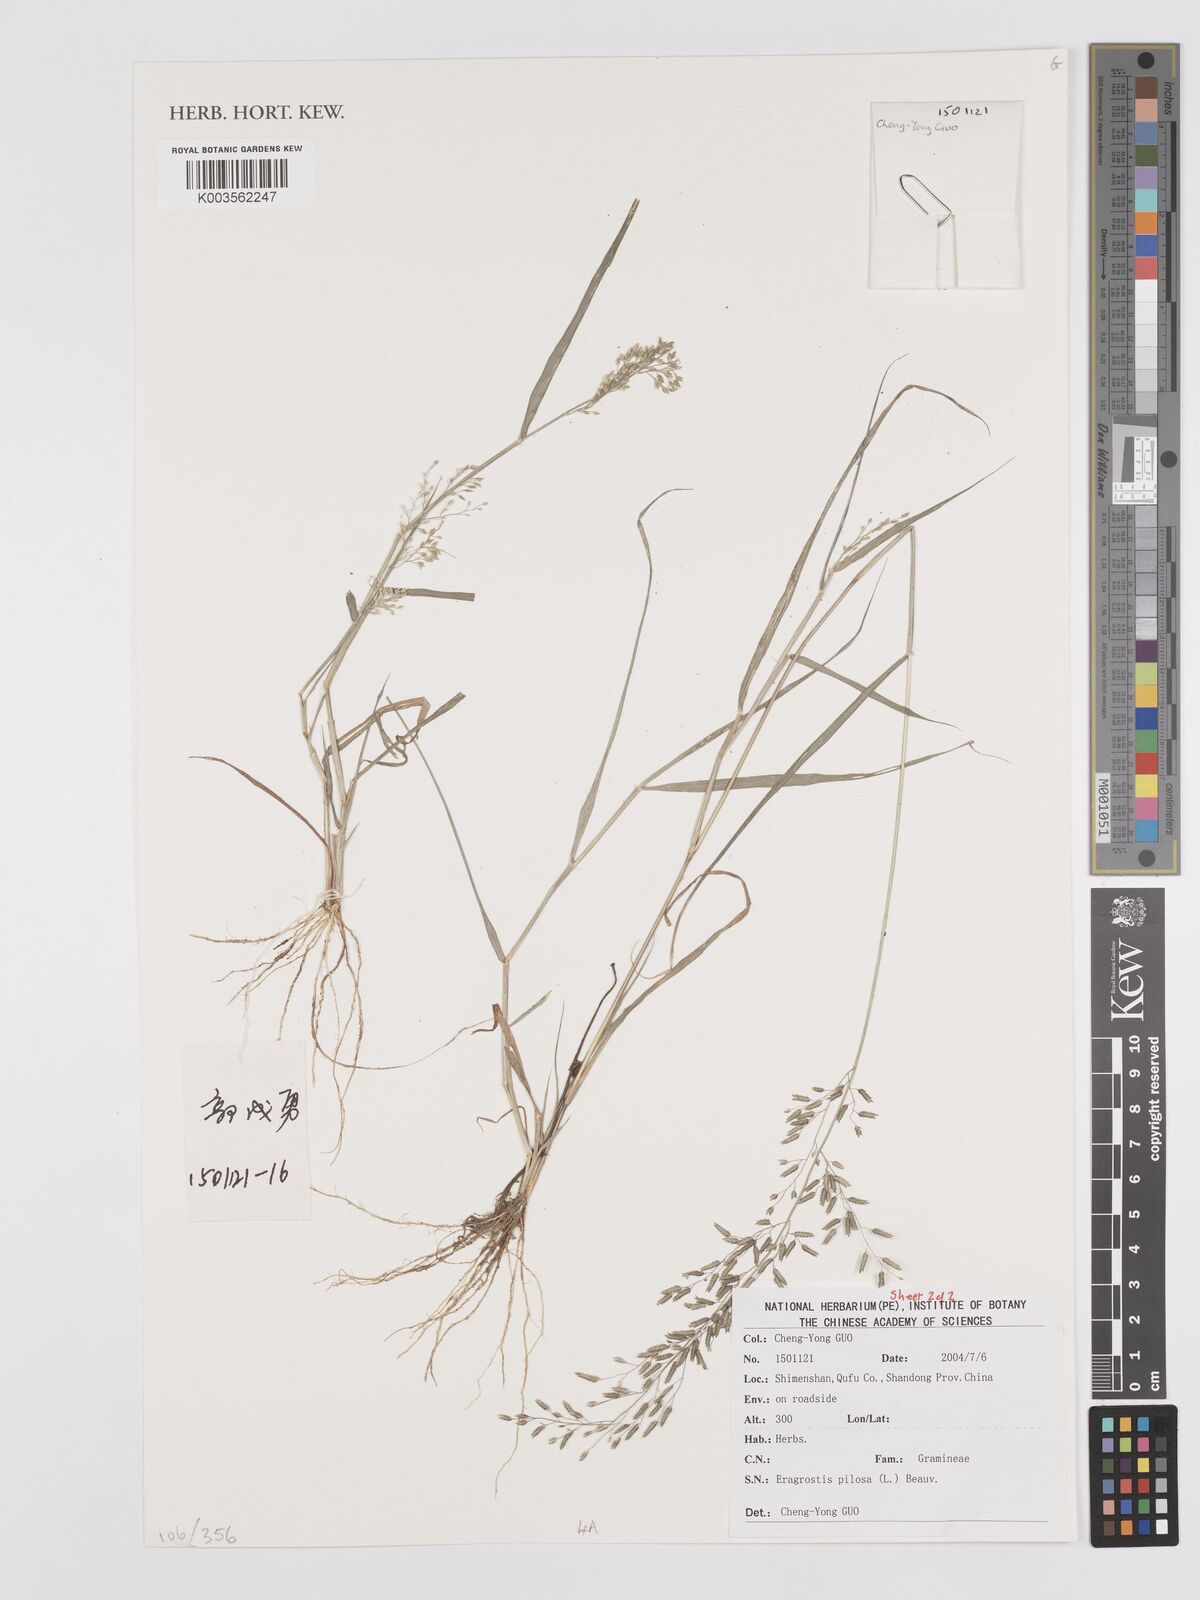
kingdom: Plantae
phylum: Tracheophyta
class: Liliopsida
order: Poales
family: Poaceae
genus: Eragrostis
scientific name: Eragrostis pilosa
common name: Indian lovegrass
